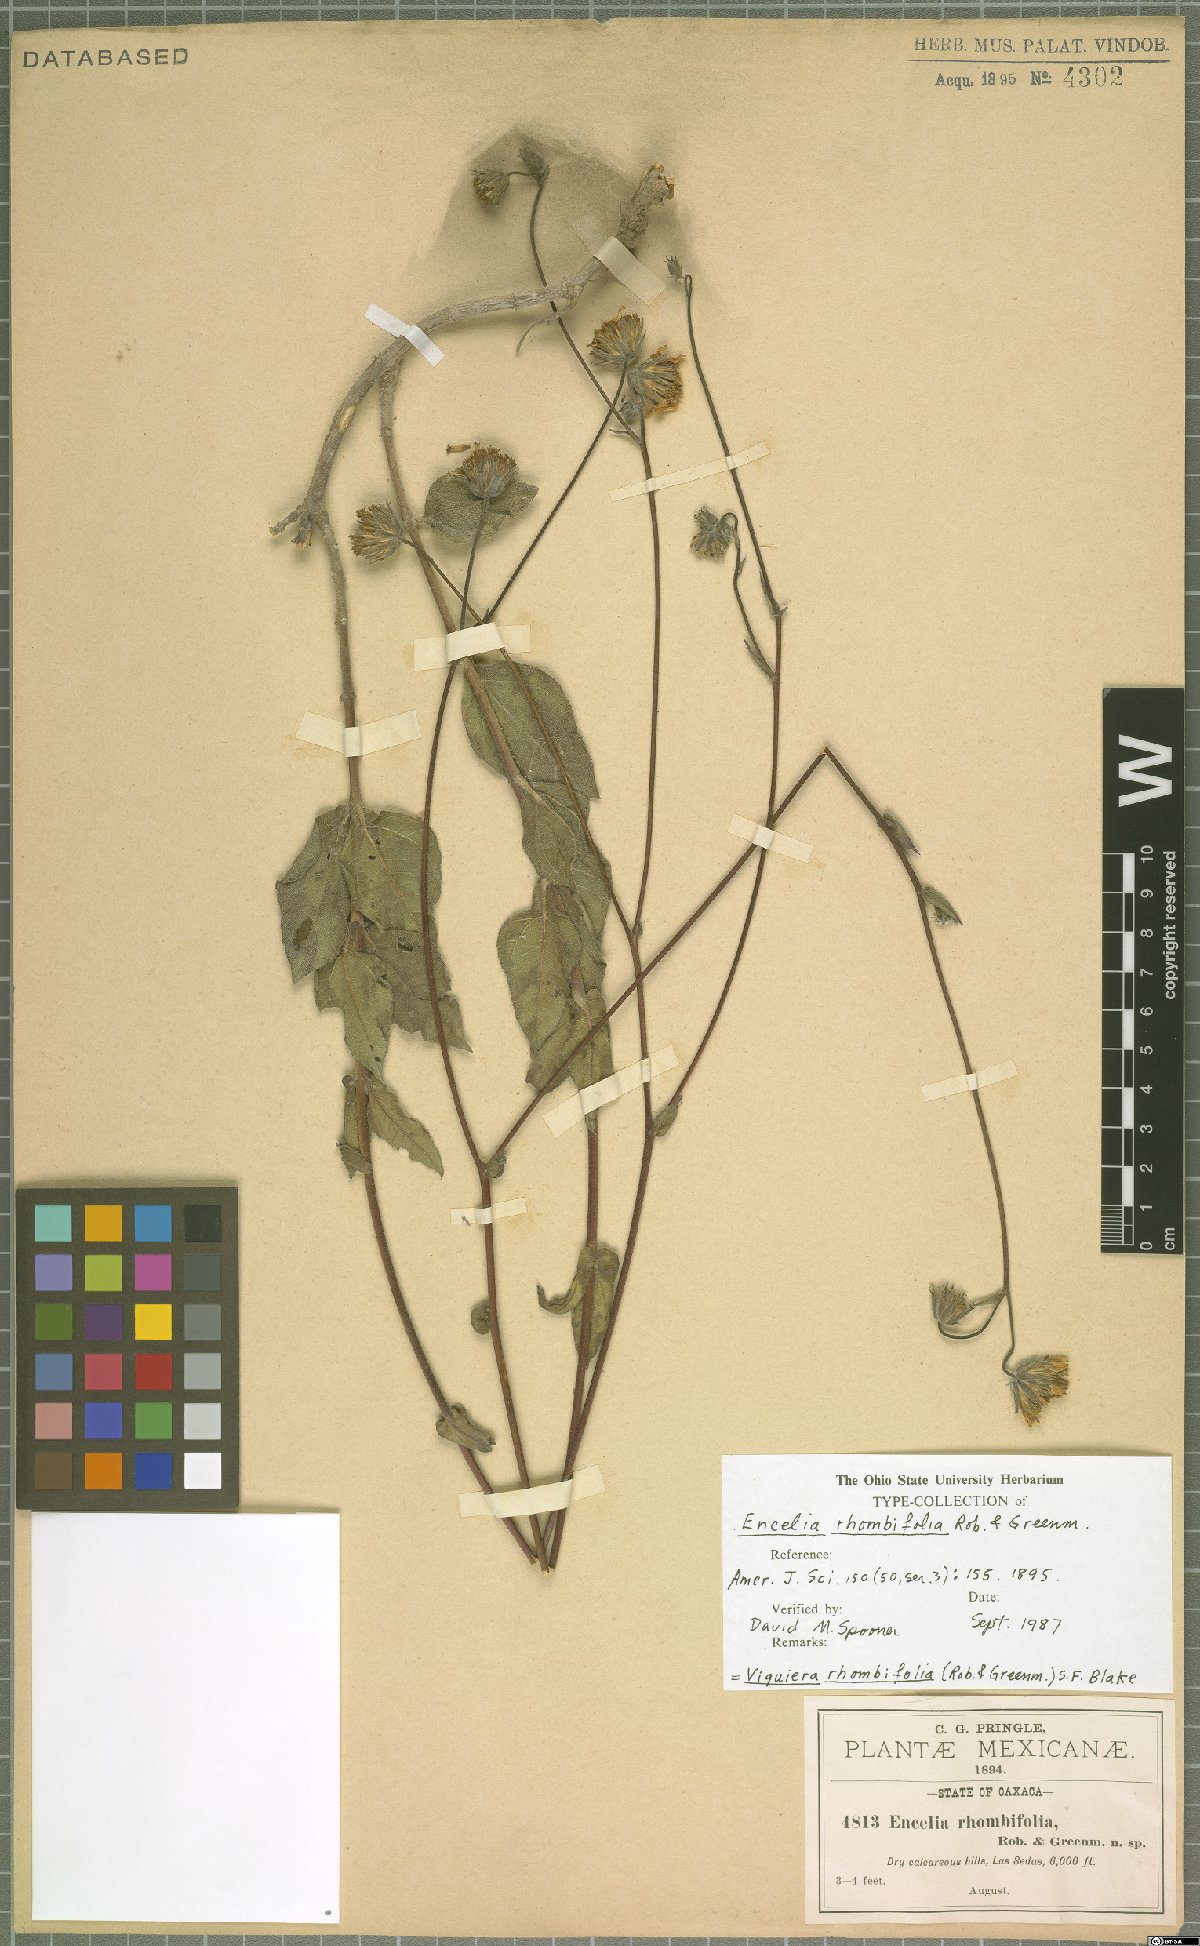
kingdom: Plantae
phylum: Tracheophyta
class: Magnoliopsida
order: Asterales
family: Asteraceae
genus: Simsia
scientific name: Simsia rhombifolia
